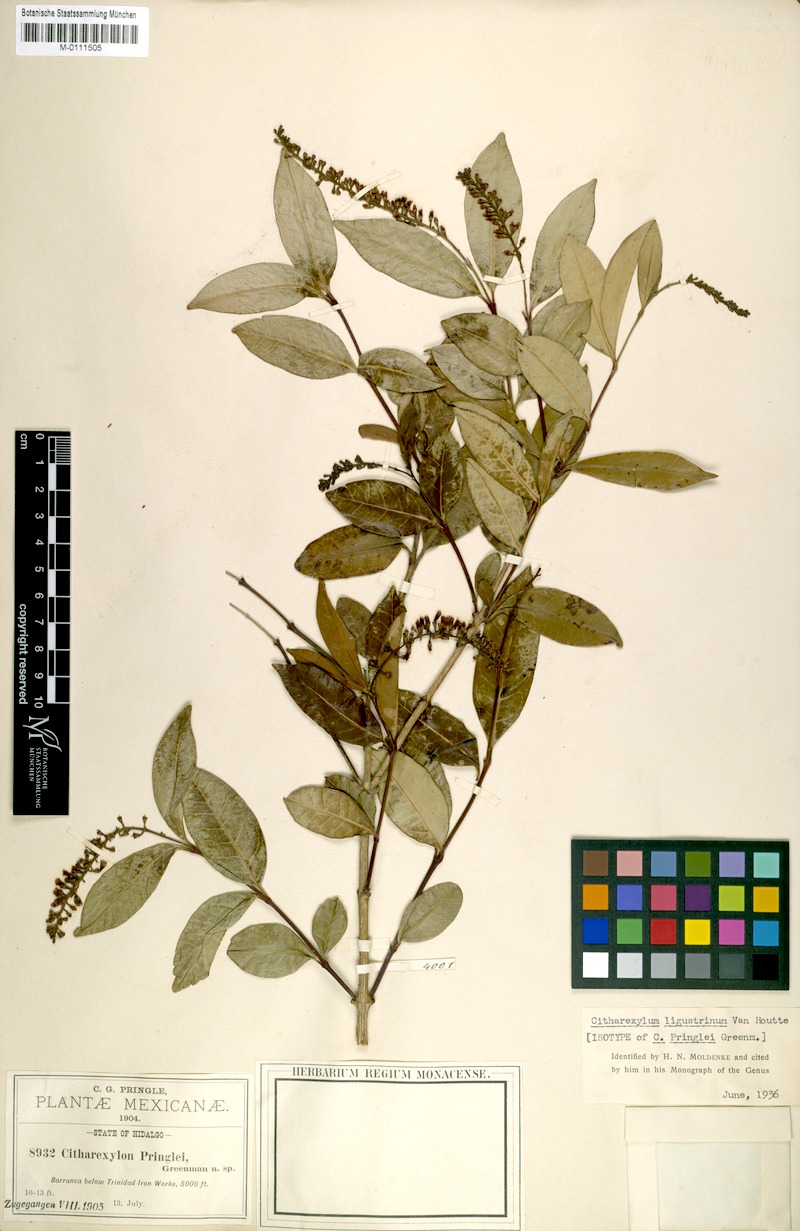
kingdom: Plantae
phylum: Tracheophyta
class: Magnoliopsida
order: Lamiales
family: Verbenaceae
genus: Citharexylum
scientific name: Citharexylum ligustrifolium
